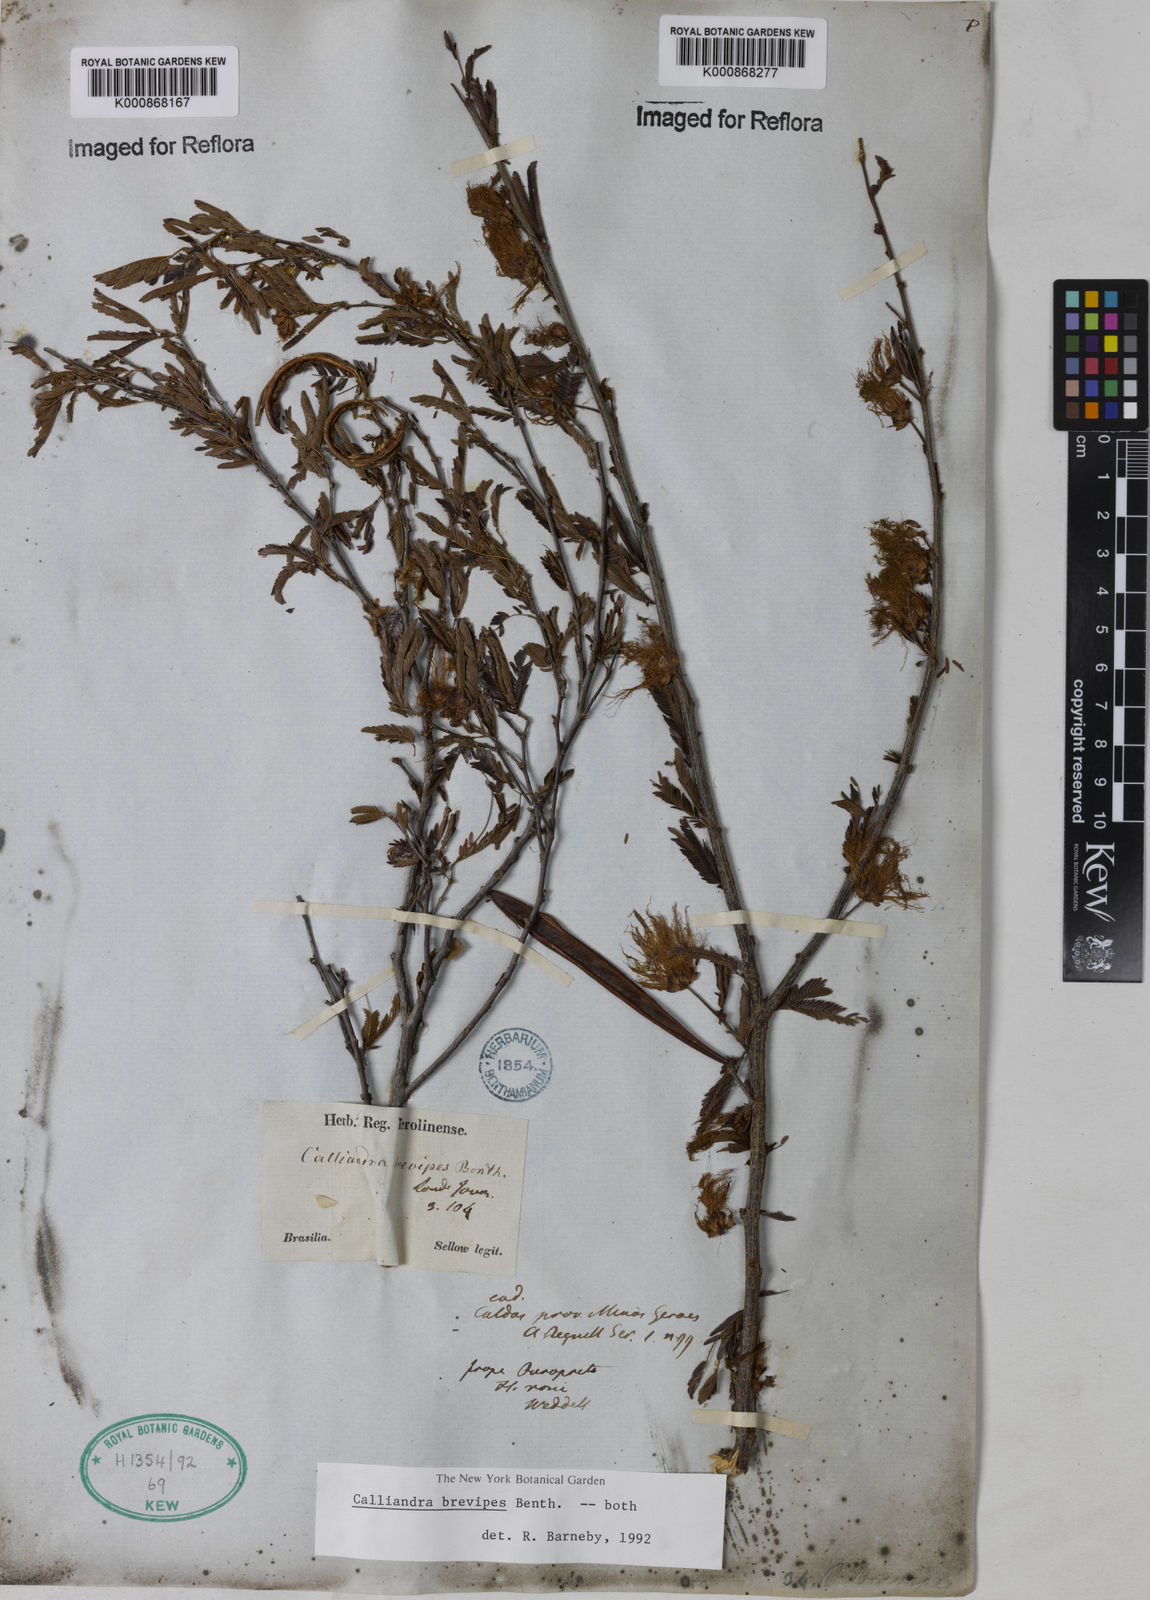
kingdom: Plantae
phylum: Tracheophyta
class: Magnoliopsida
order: Fabales
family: Fabaceae
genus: Calliandra
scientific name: Calliandra selloi
